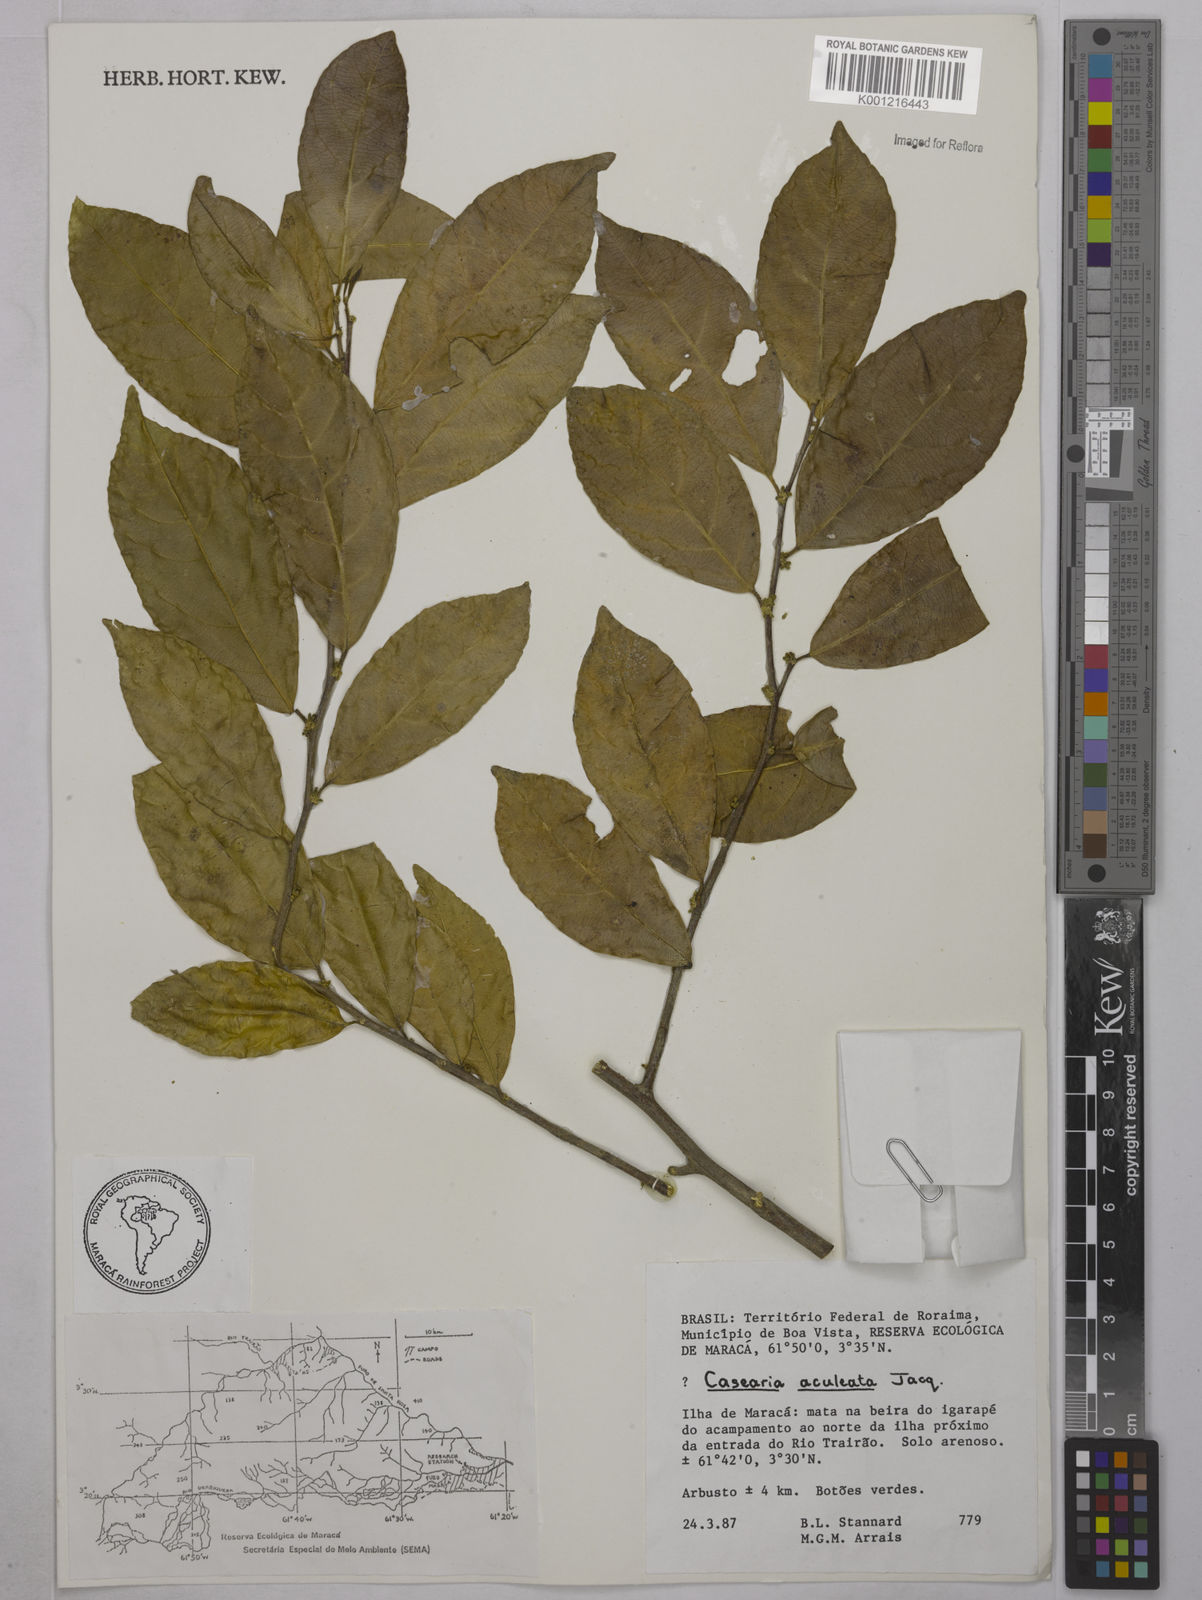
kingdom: Plantae
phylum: Tracheophyta
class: Magnoliopsida
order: Malpighiales
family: Salicaceae
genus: Casearia
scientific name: Casearia aculeata
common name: Cockspur
